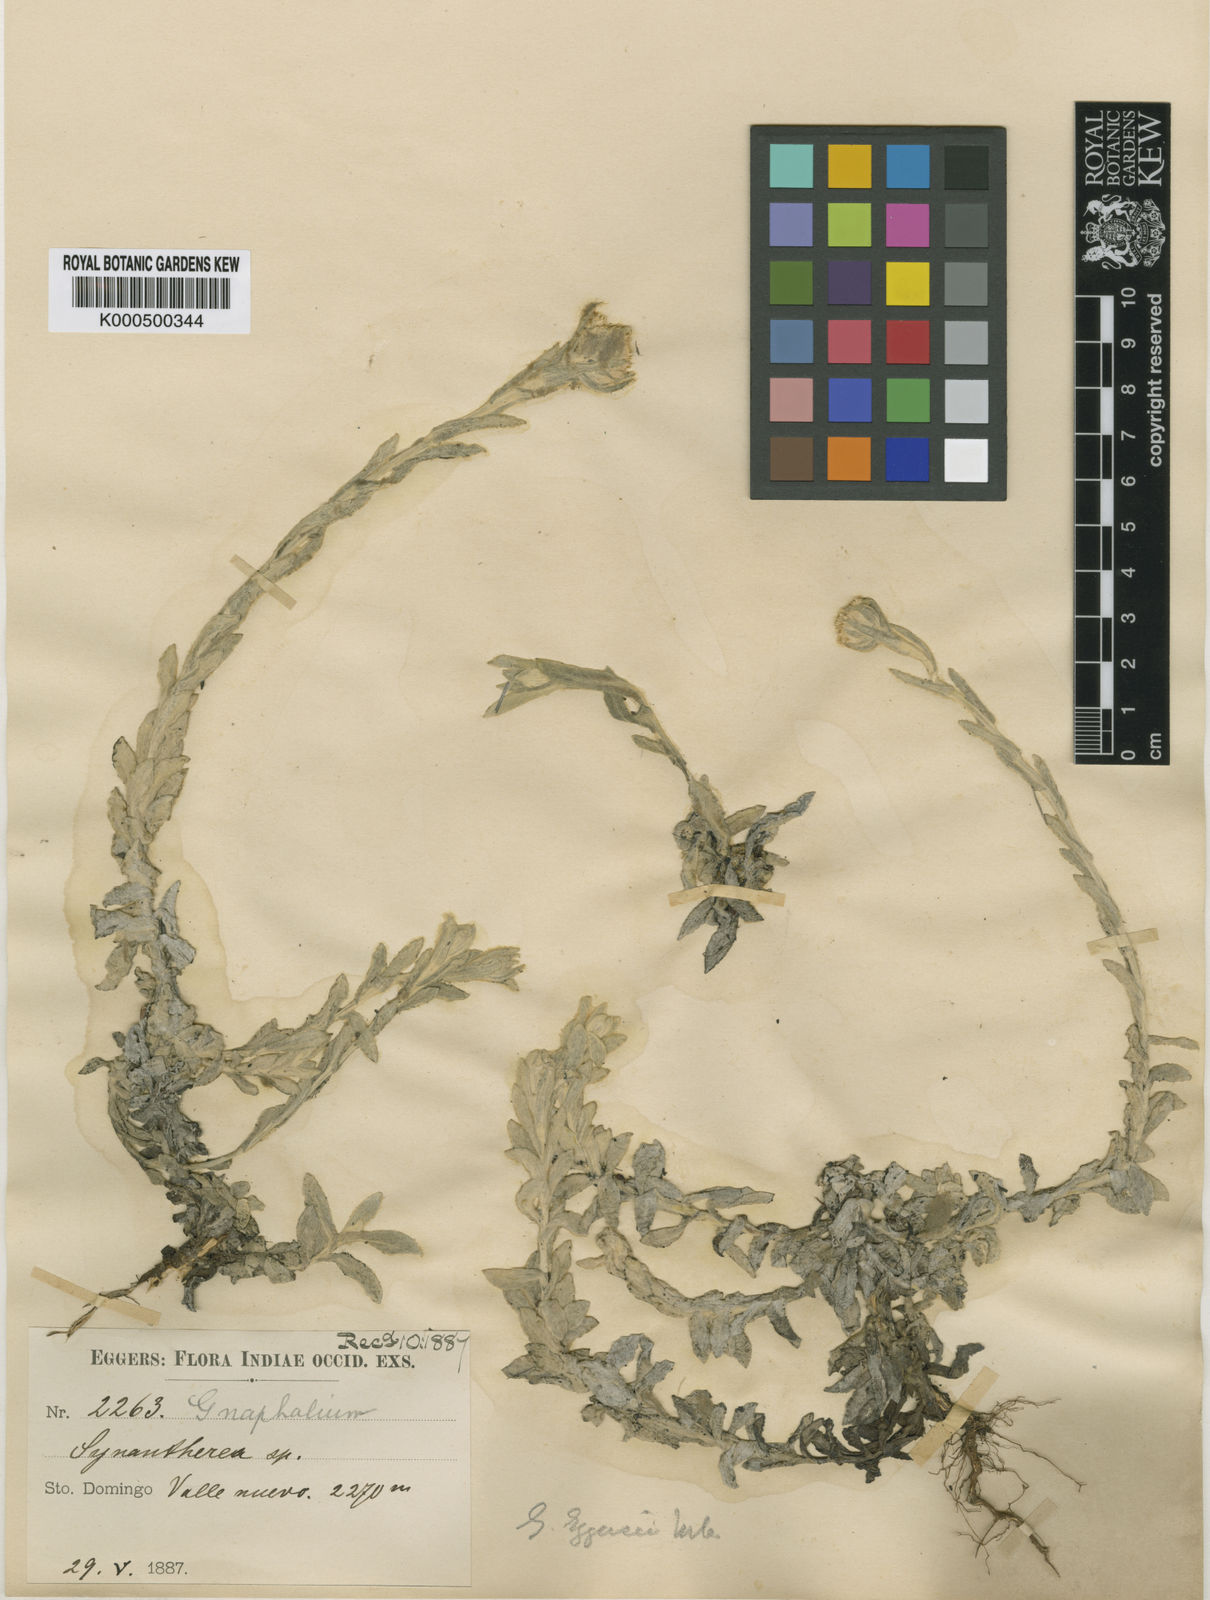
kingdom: Plantae
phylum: Tracheophyta
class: Magnoliopsida
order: Asterales
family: Asteraceae
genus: Pseudognaphalium
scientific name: Pseudognaphalium eggersii
